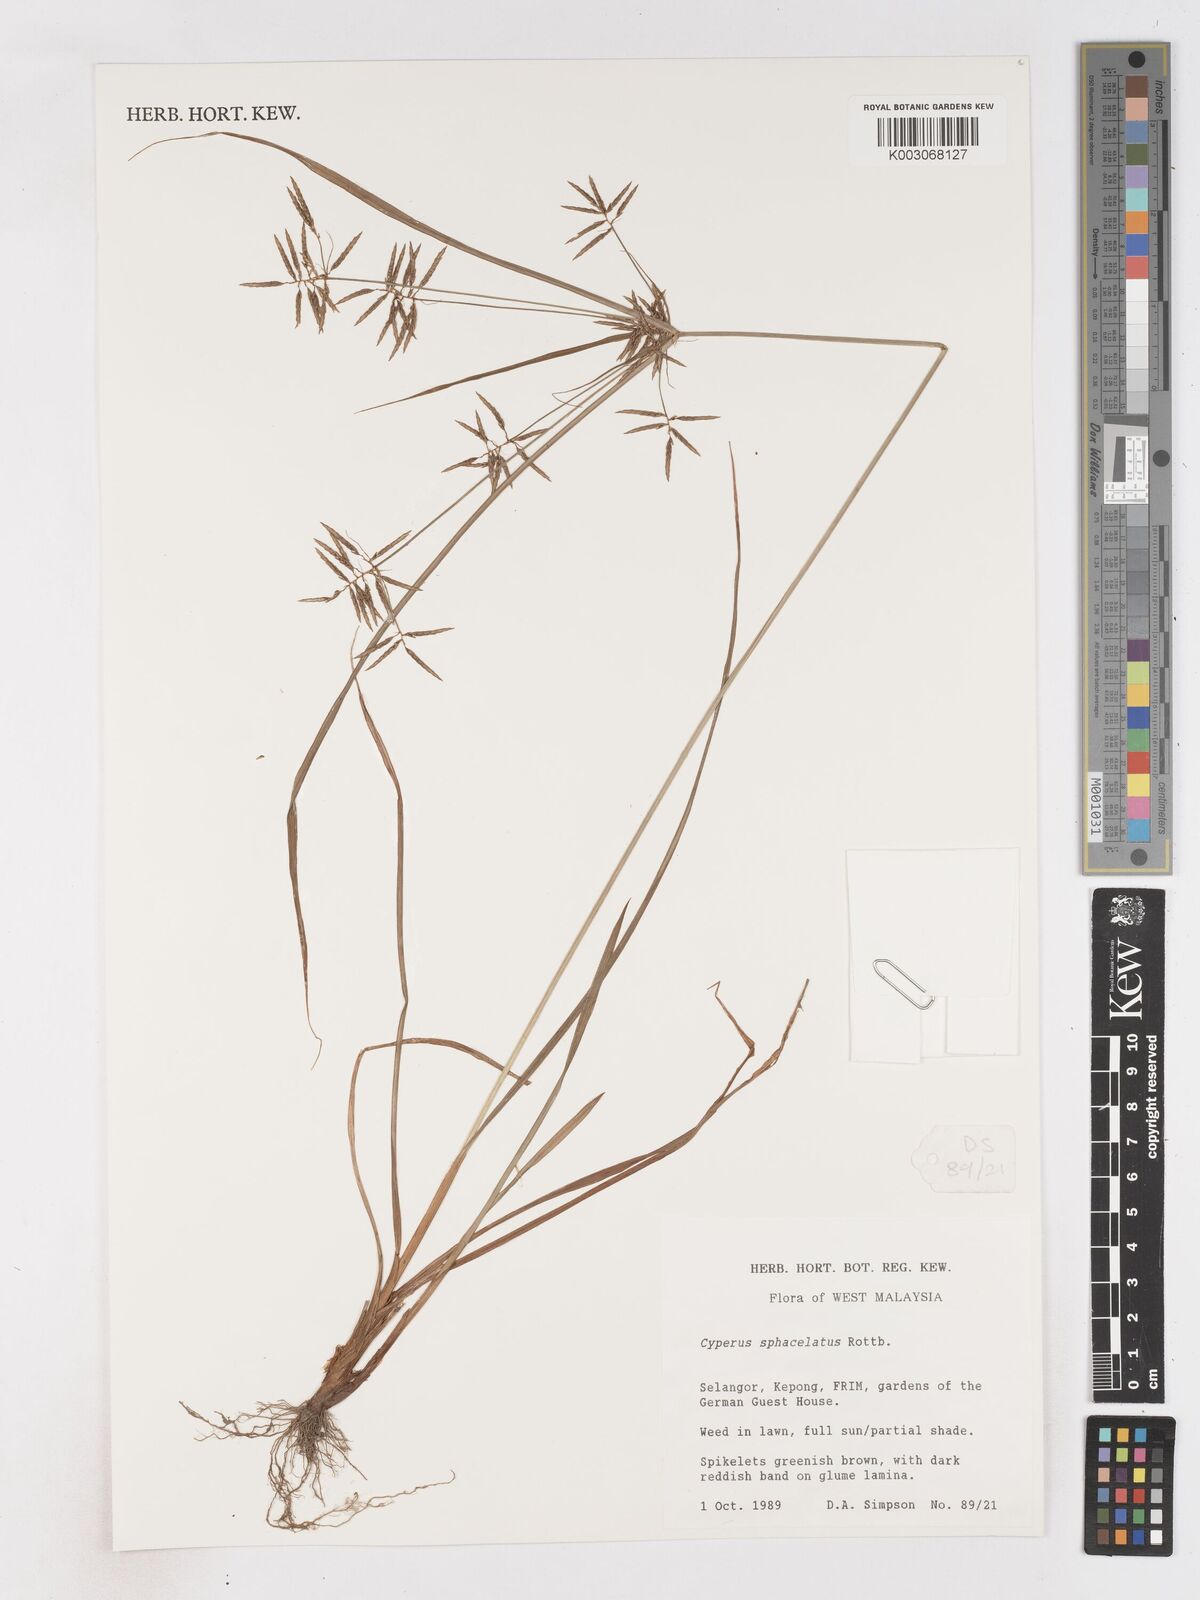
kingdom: Plantae
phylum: Tracheophyta
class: Liliopsida
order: Poales
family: Cyperaceae
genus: Cyperus
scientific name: Cyperus sphacelatus
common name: Roadside flatsedge
